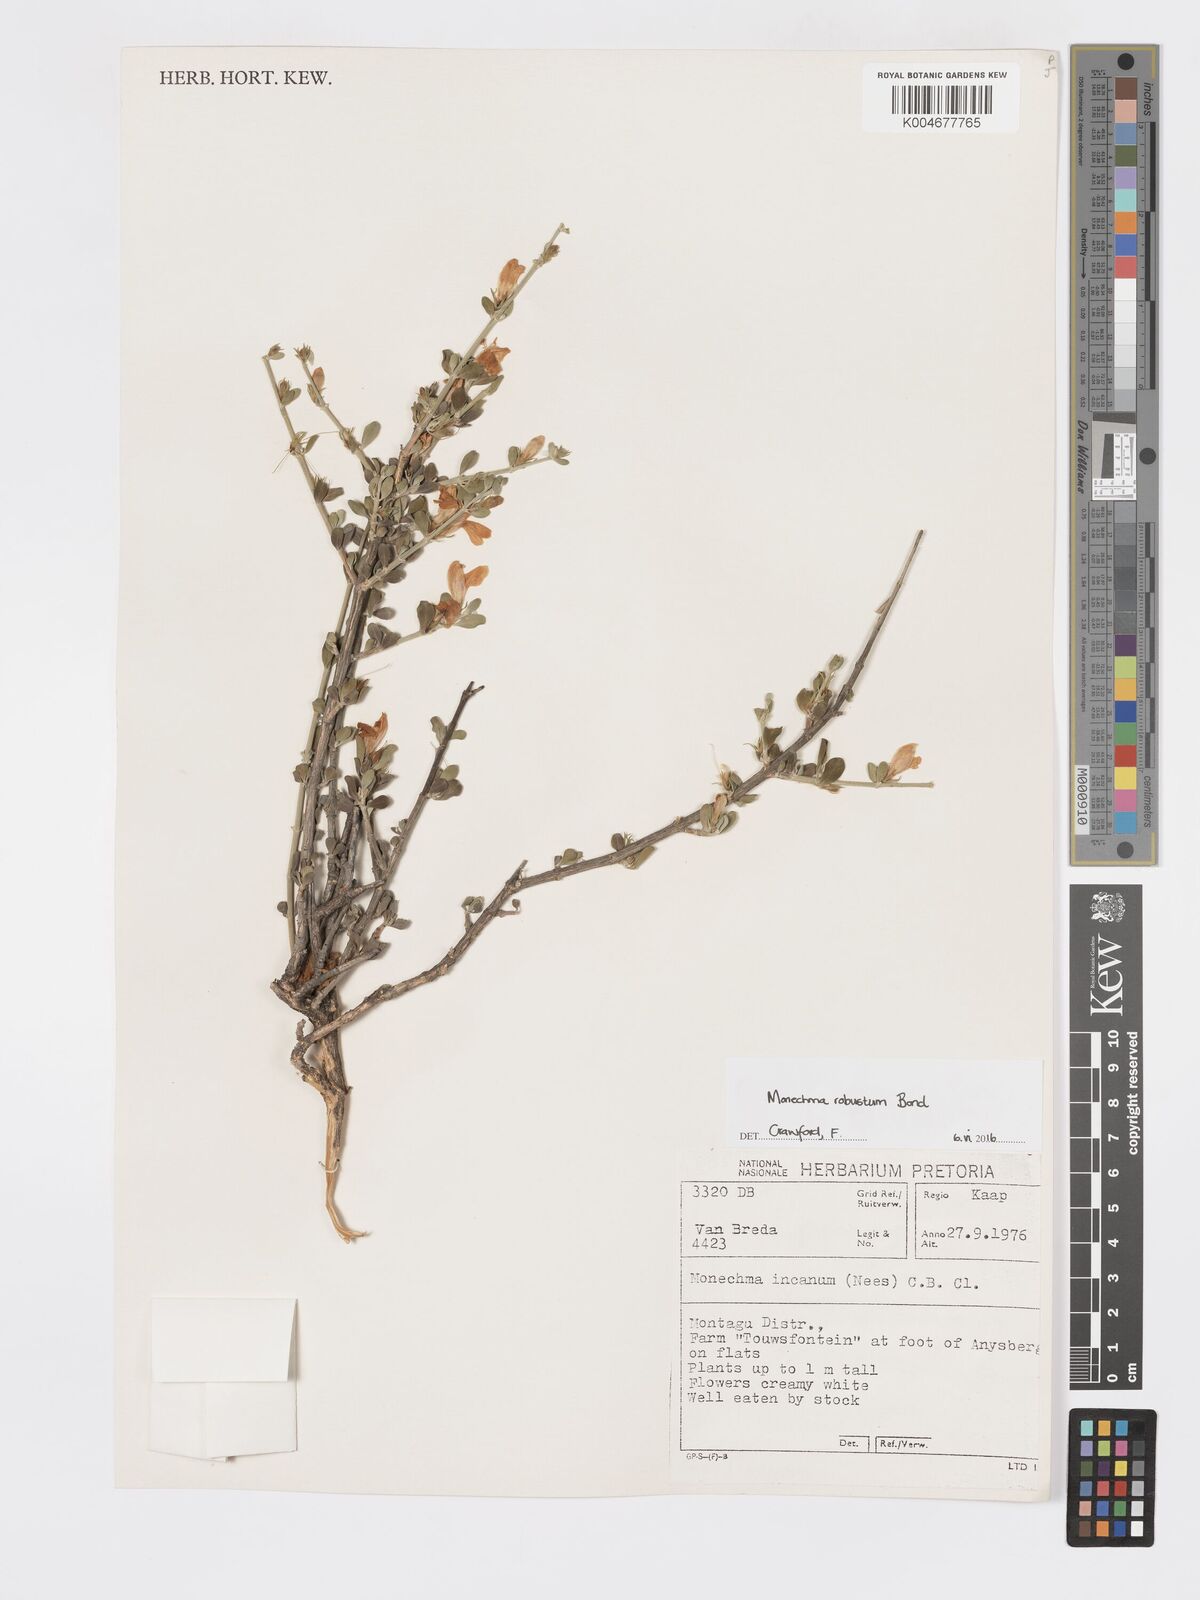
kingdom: Plantae
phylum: Tracheophyta
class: Magnoliopsida
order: Lamiales
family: Acanthaceae
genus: Pogonospermum
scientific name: Pogonospermum
